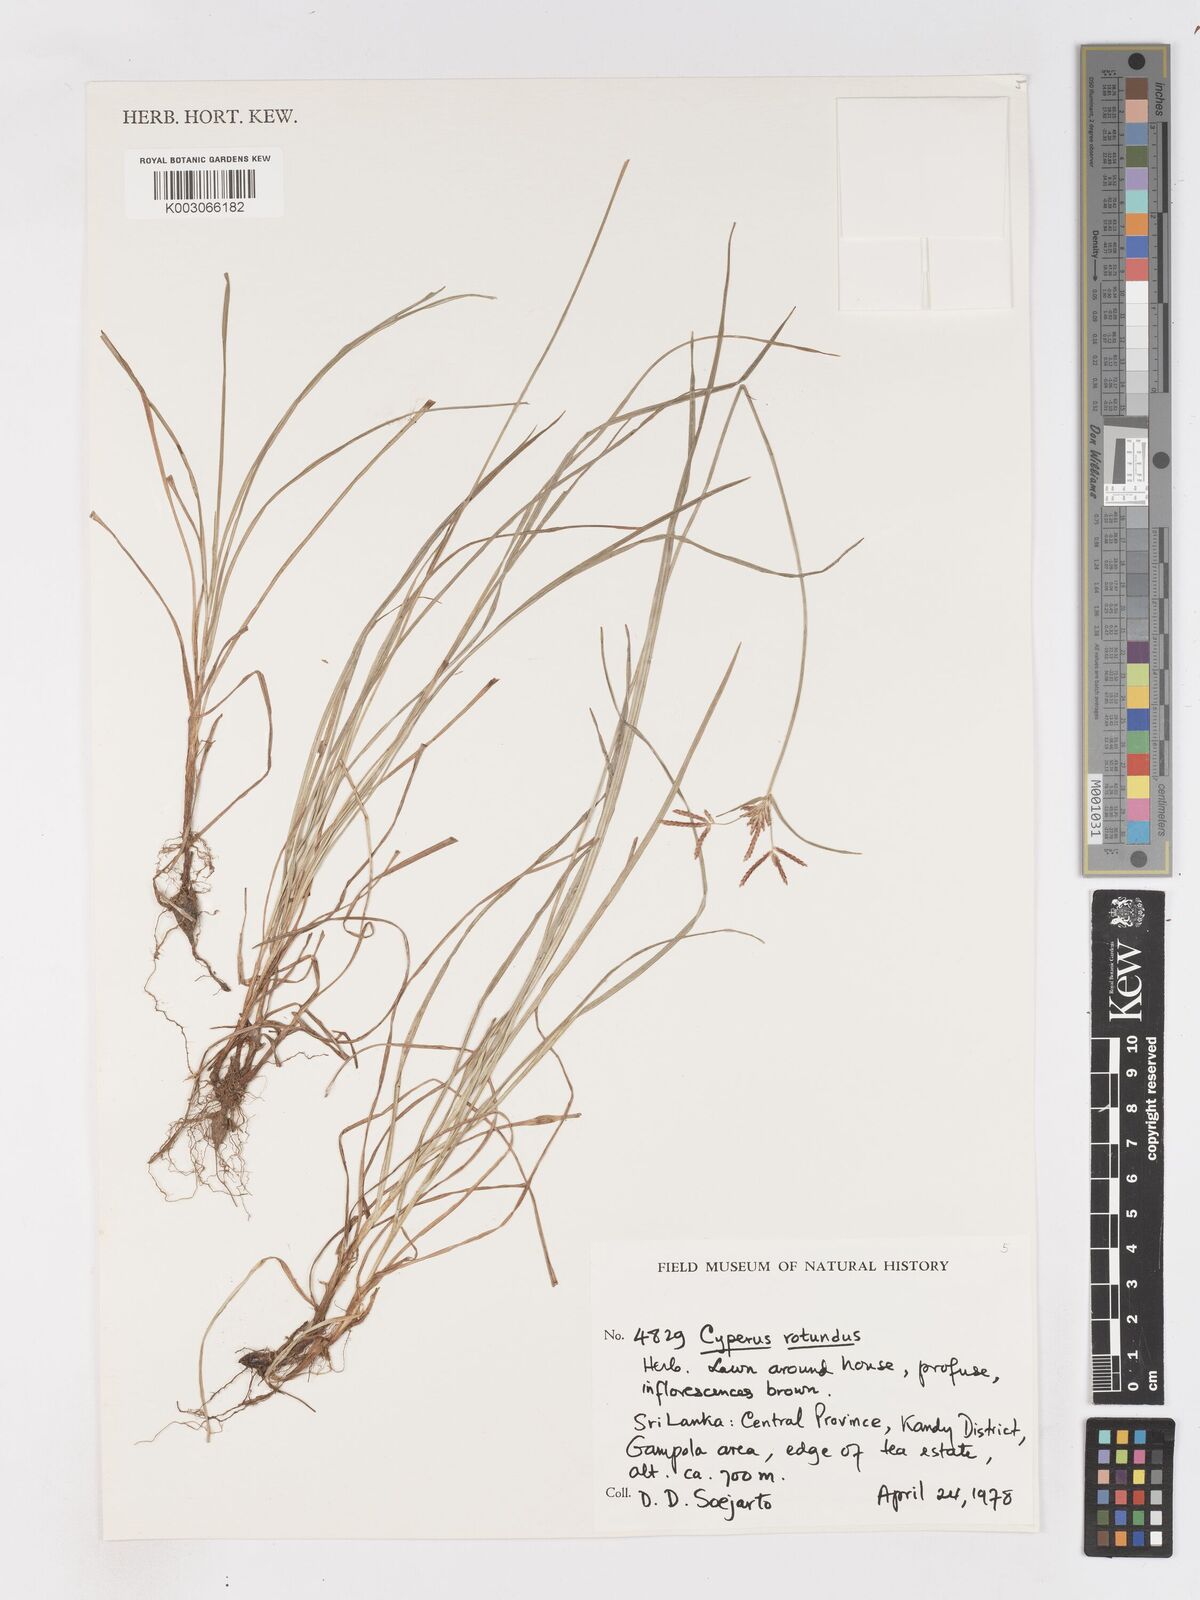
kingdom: Plantae
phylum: Tracheophyta
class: Liliopsida
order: Poales
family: Cyperaceae
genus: Cyperus
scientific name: Cyperus rotundus
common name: Nutgrass
